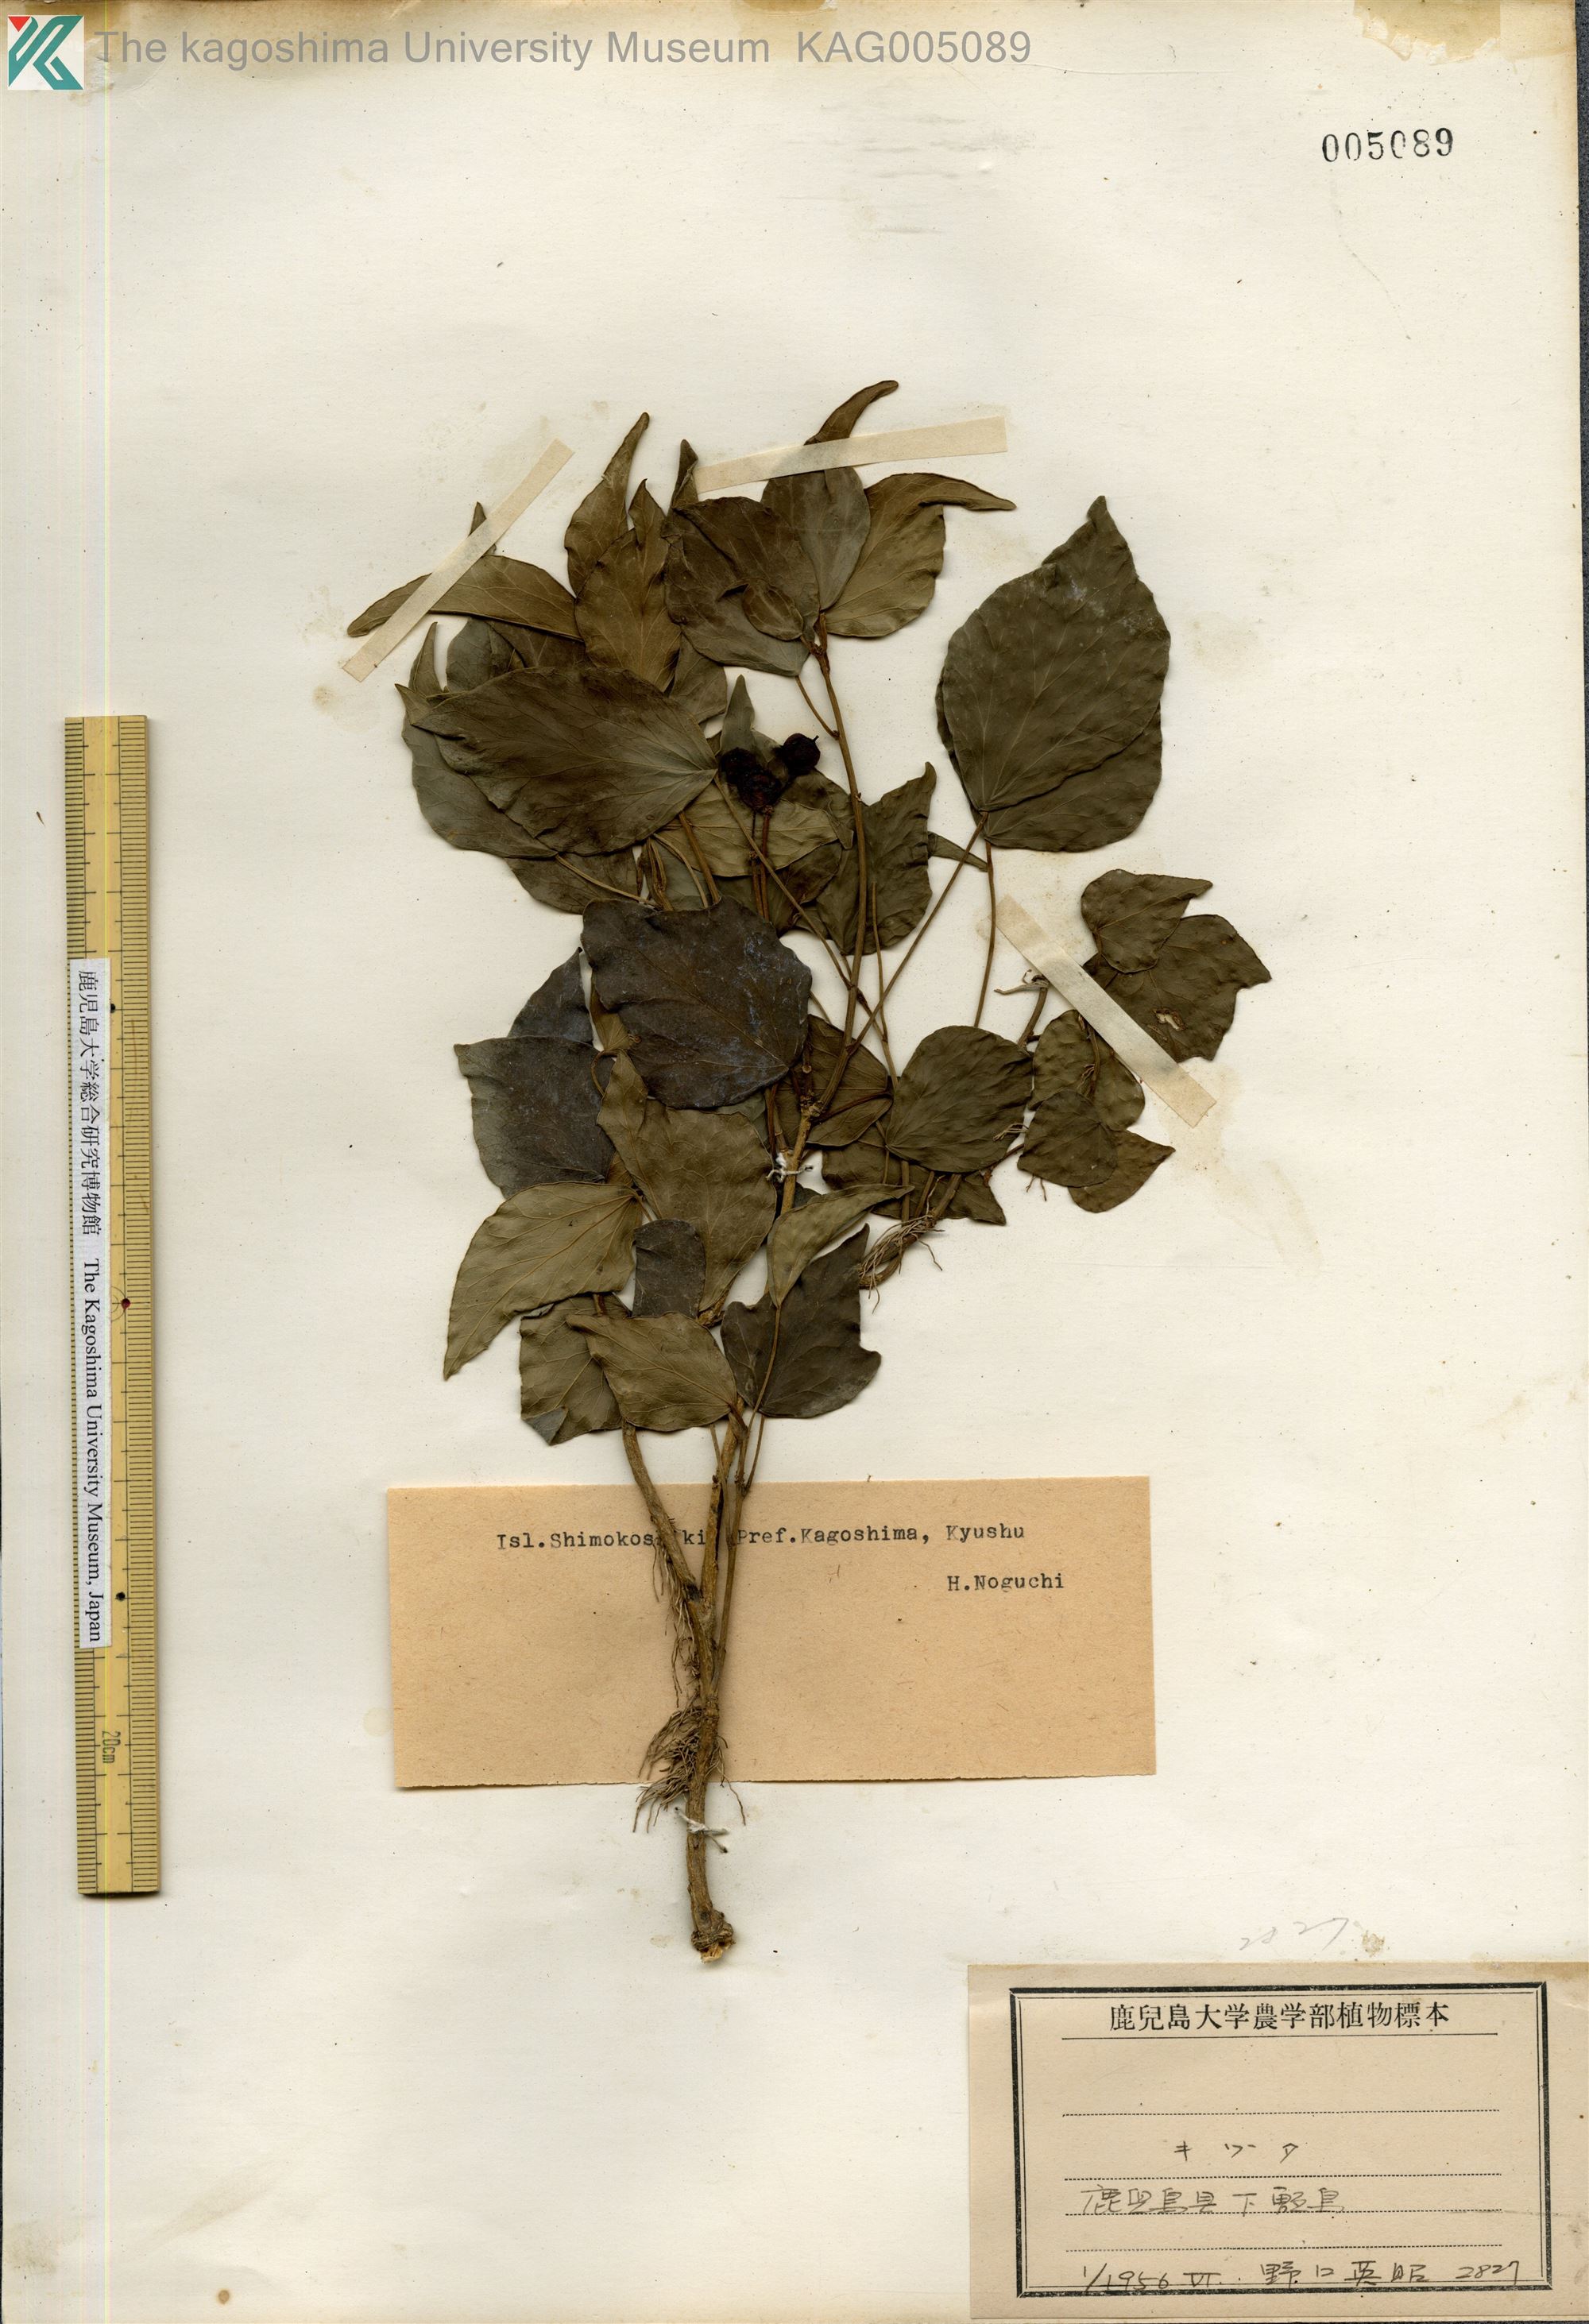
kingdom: Plantae
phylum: Tracheophyta
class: Magnoliopsida
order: Apiales
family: Araliaceae
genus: Hedera
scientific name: Hedera rhombea
